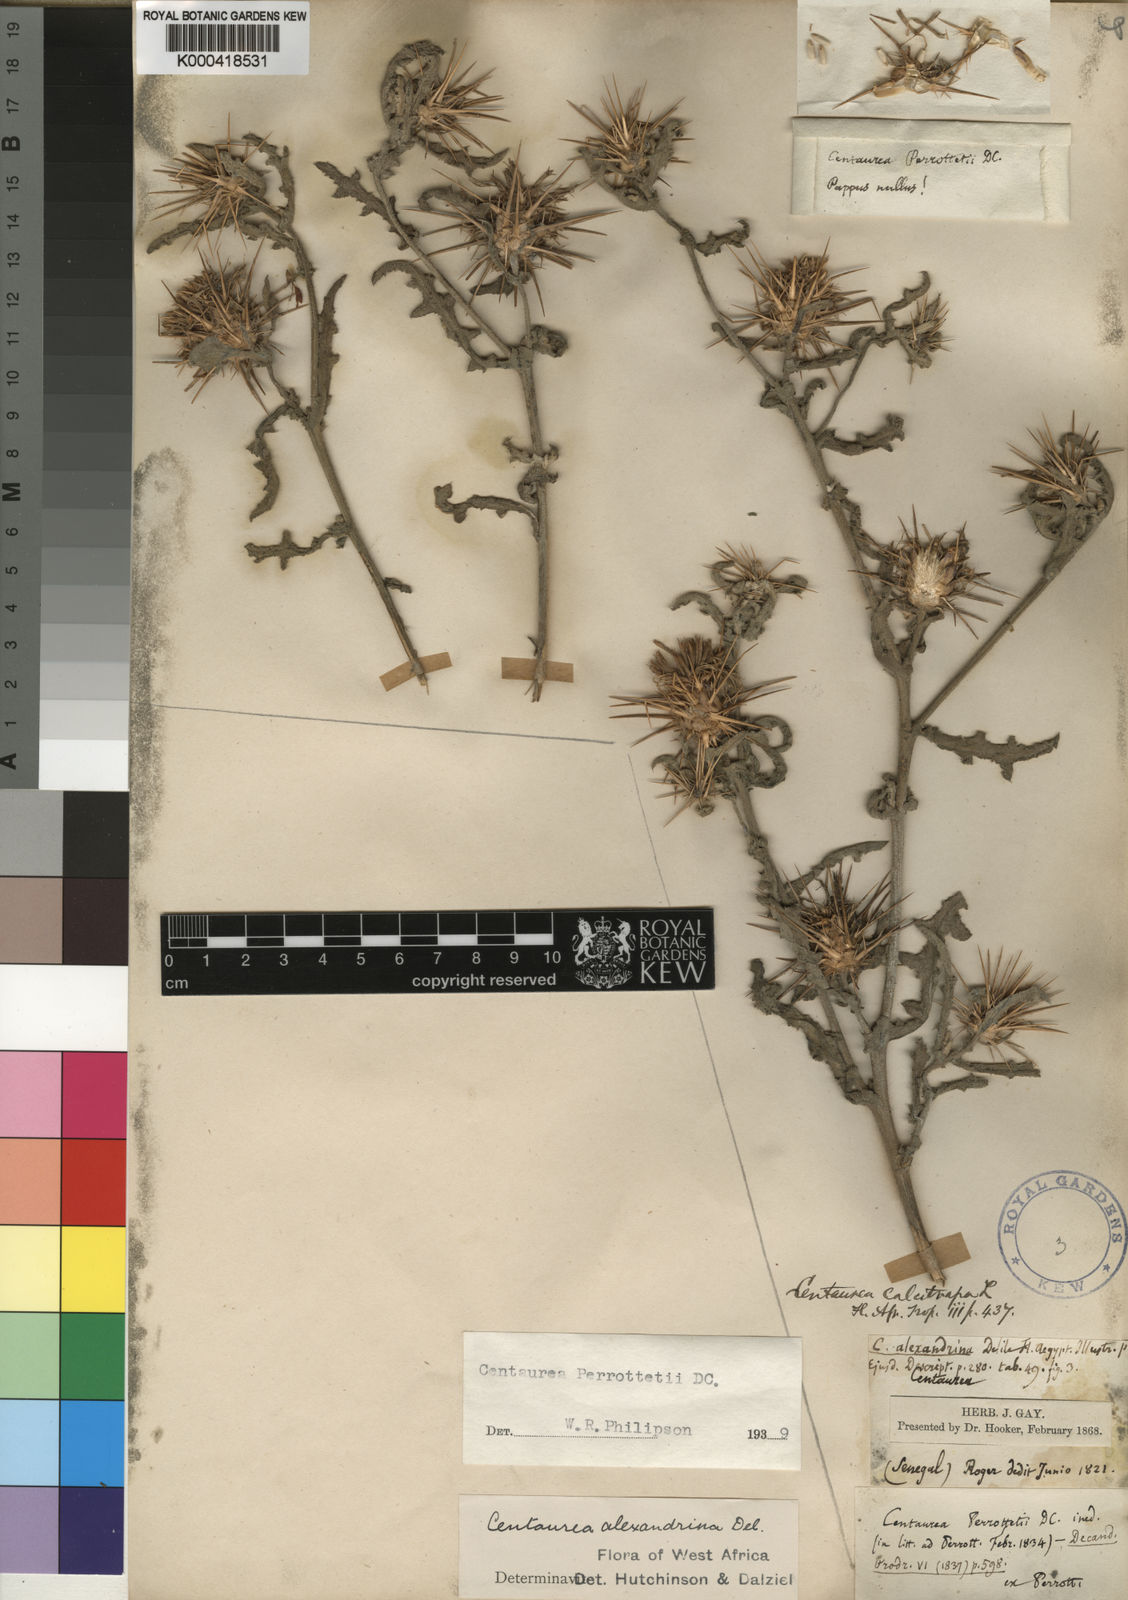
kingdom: Plantae
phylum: Tracheophyta
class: Magnoliopsida
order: Asterales
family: Asteraceae
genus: Centaurea
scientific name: Centaurea perrottettii
